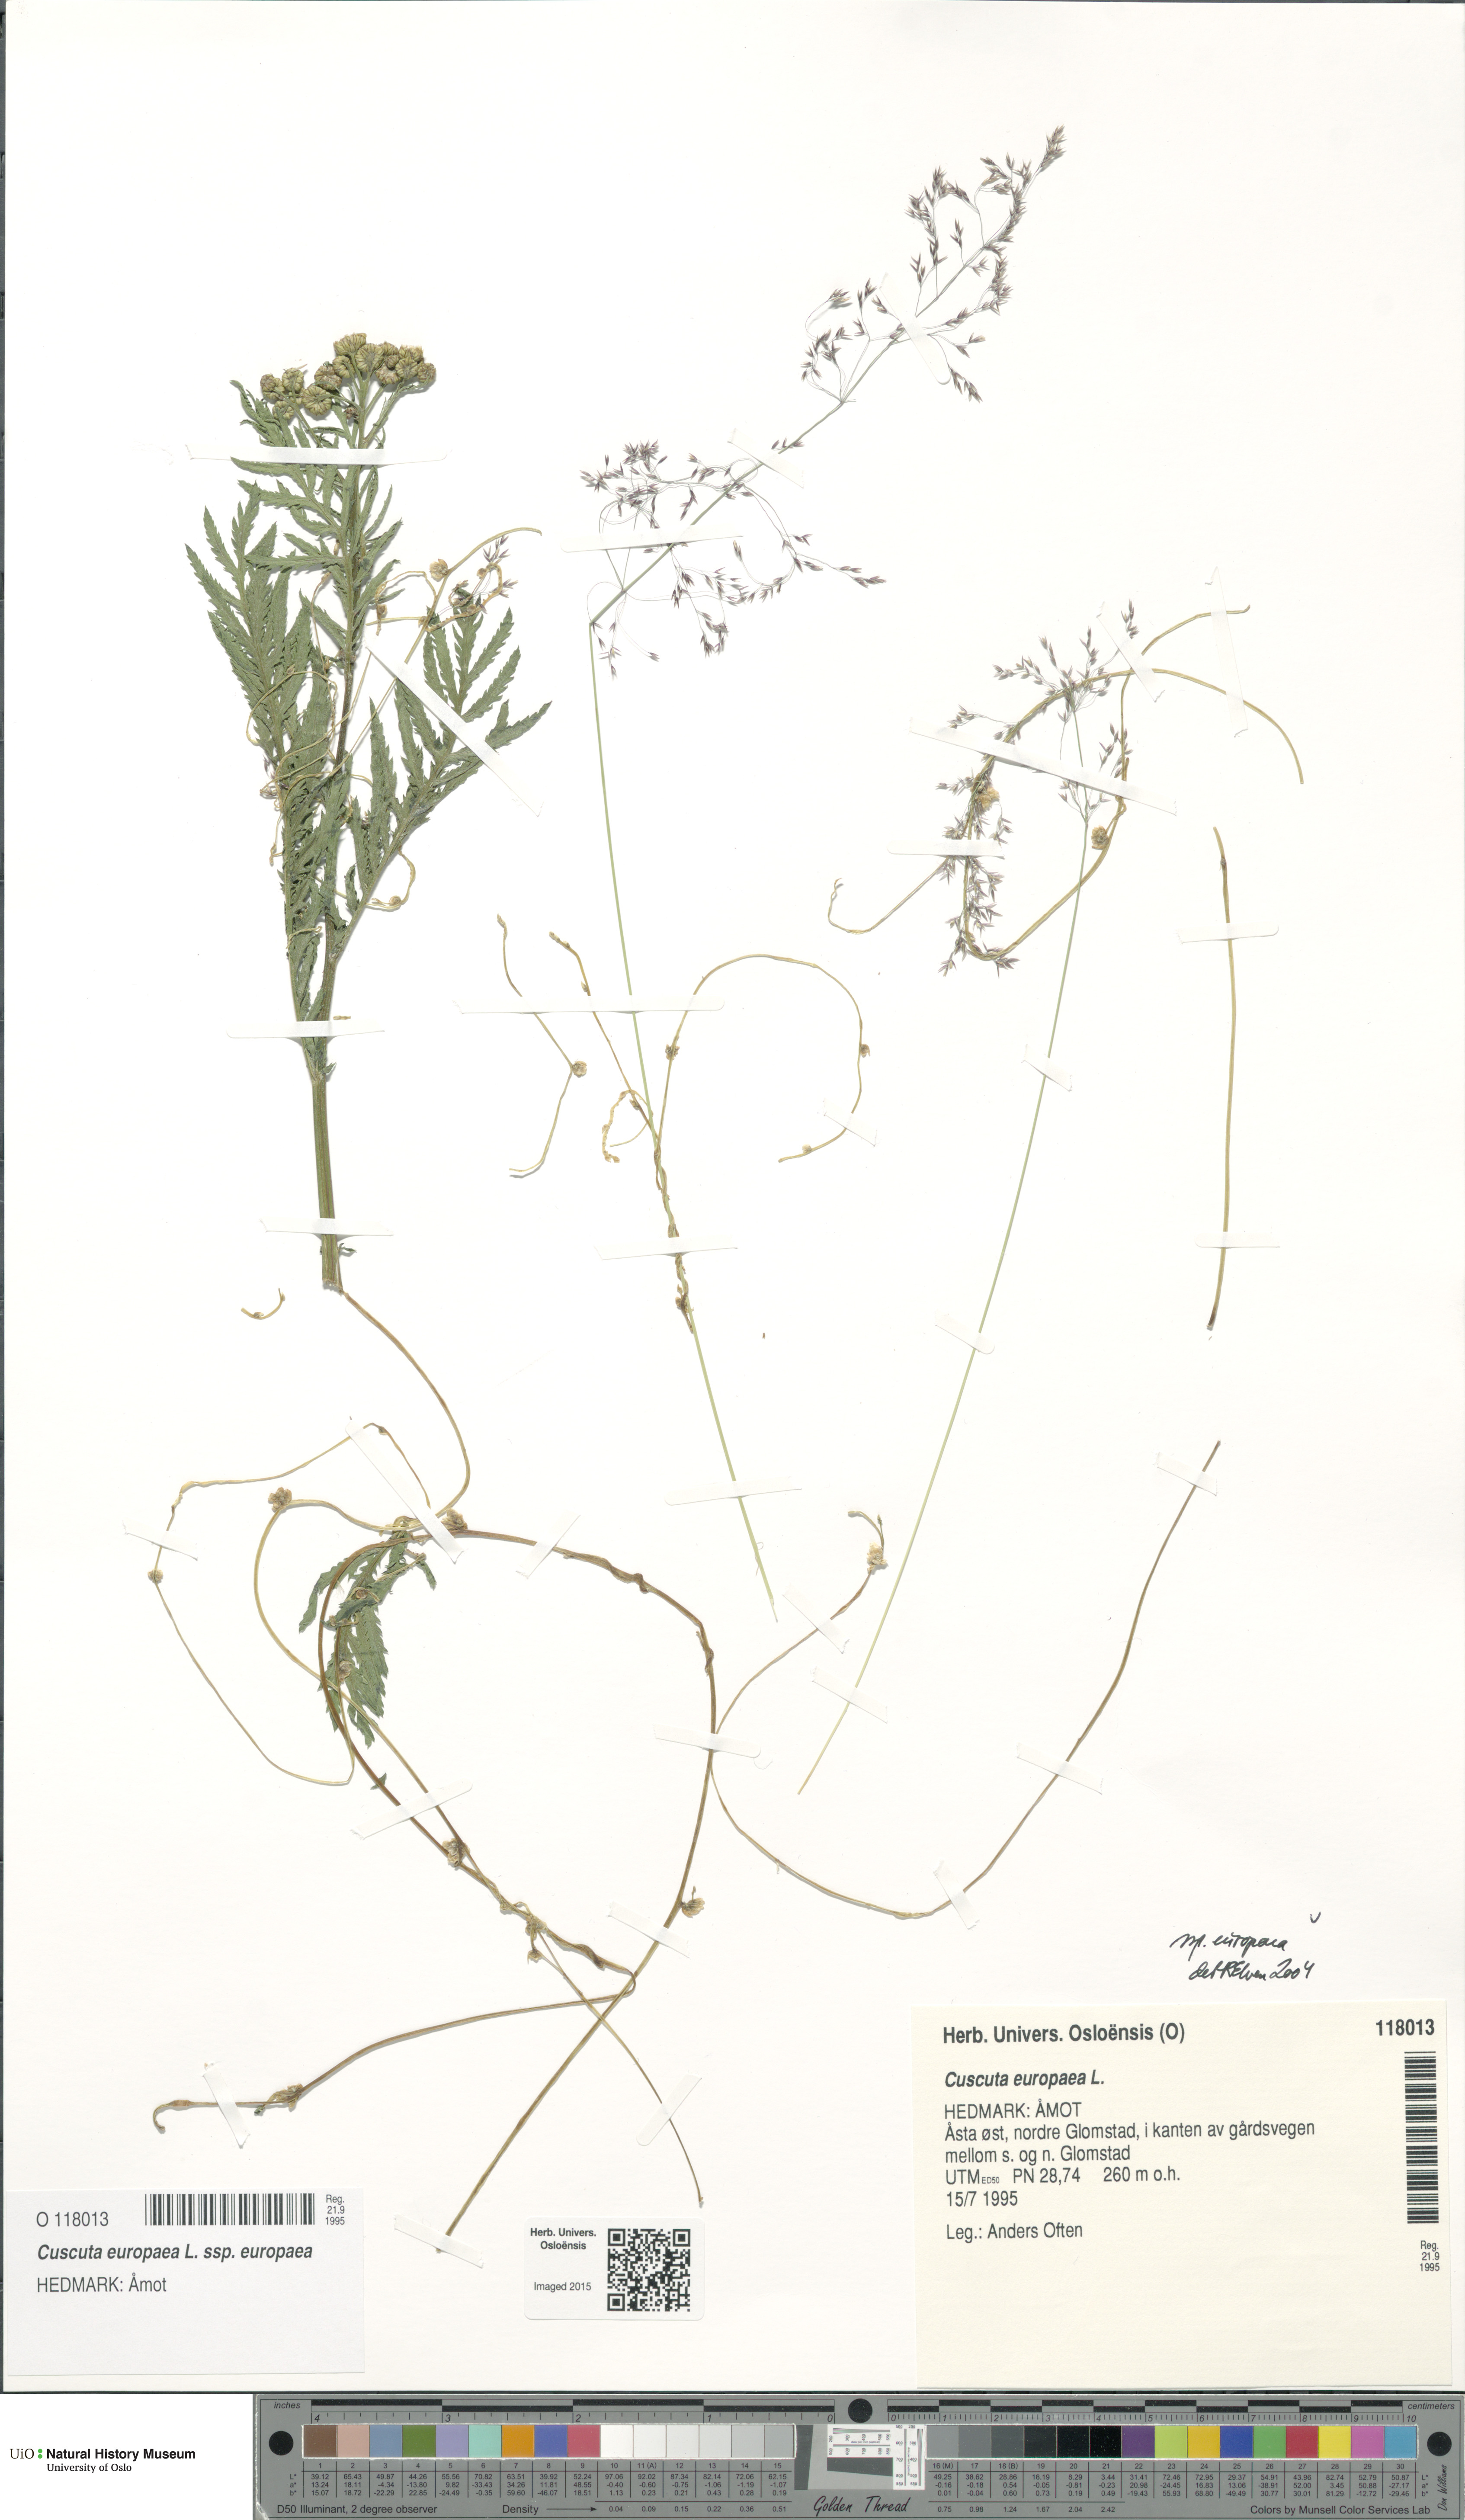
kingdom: Plantae
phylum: Tracheophyta
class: Magnoliopsida
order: Solanales
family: Convolvulaceae
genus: Cuscuta
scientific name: Cuscuta europaea
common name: Greater dodder
